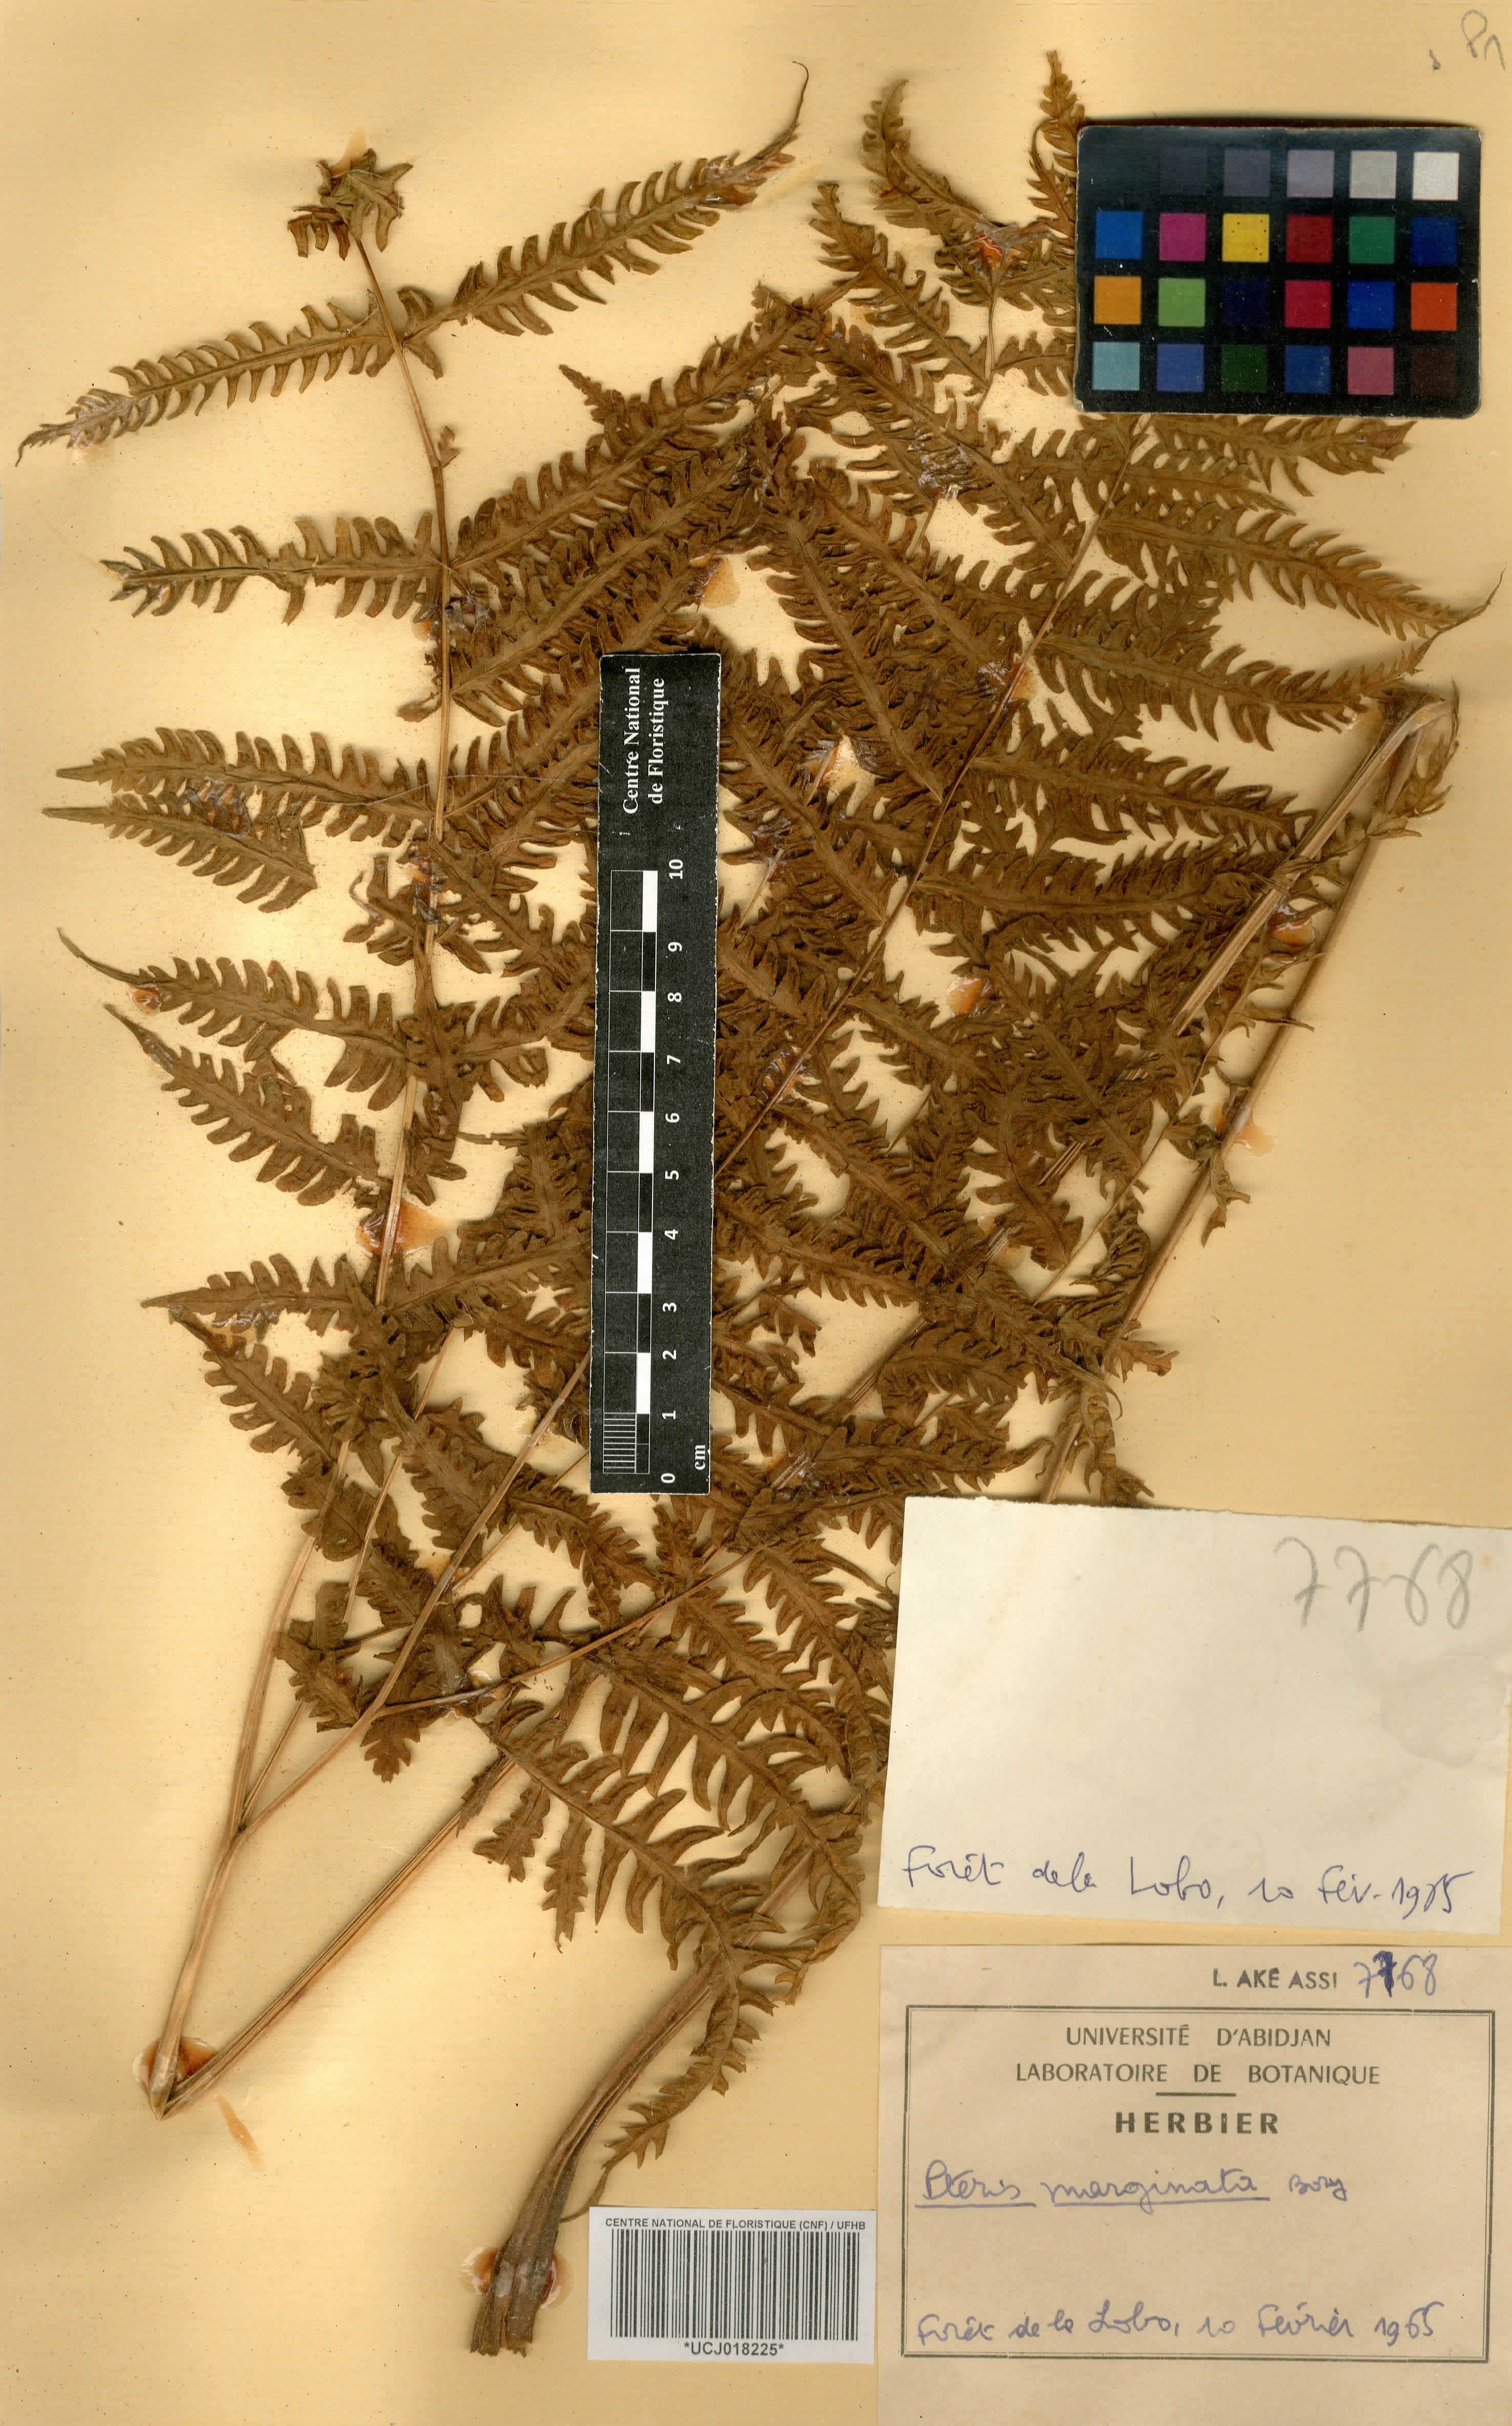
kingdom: Plantae
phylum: Tracheophyta
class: Polypodiopsida
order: Polypodiales
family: Pteridaceae
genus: Pteris
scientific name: Pteris tripartita
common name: Giant brake
